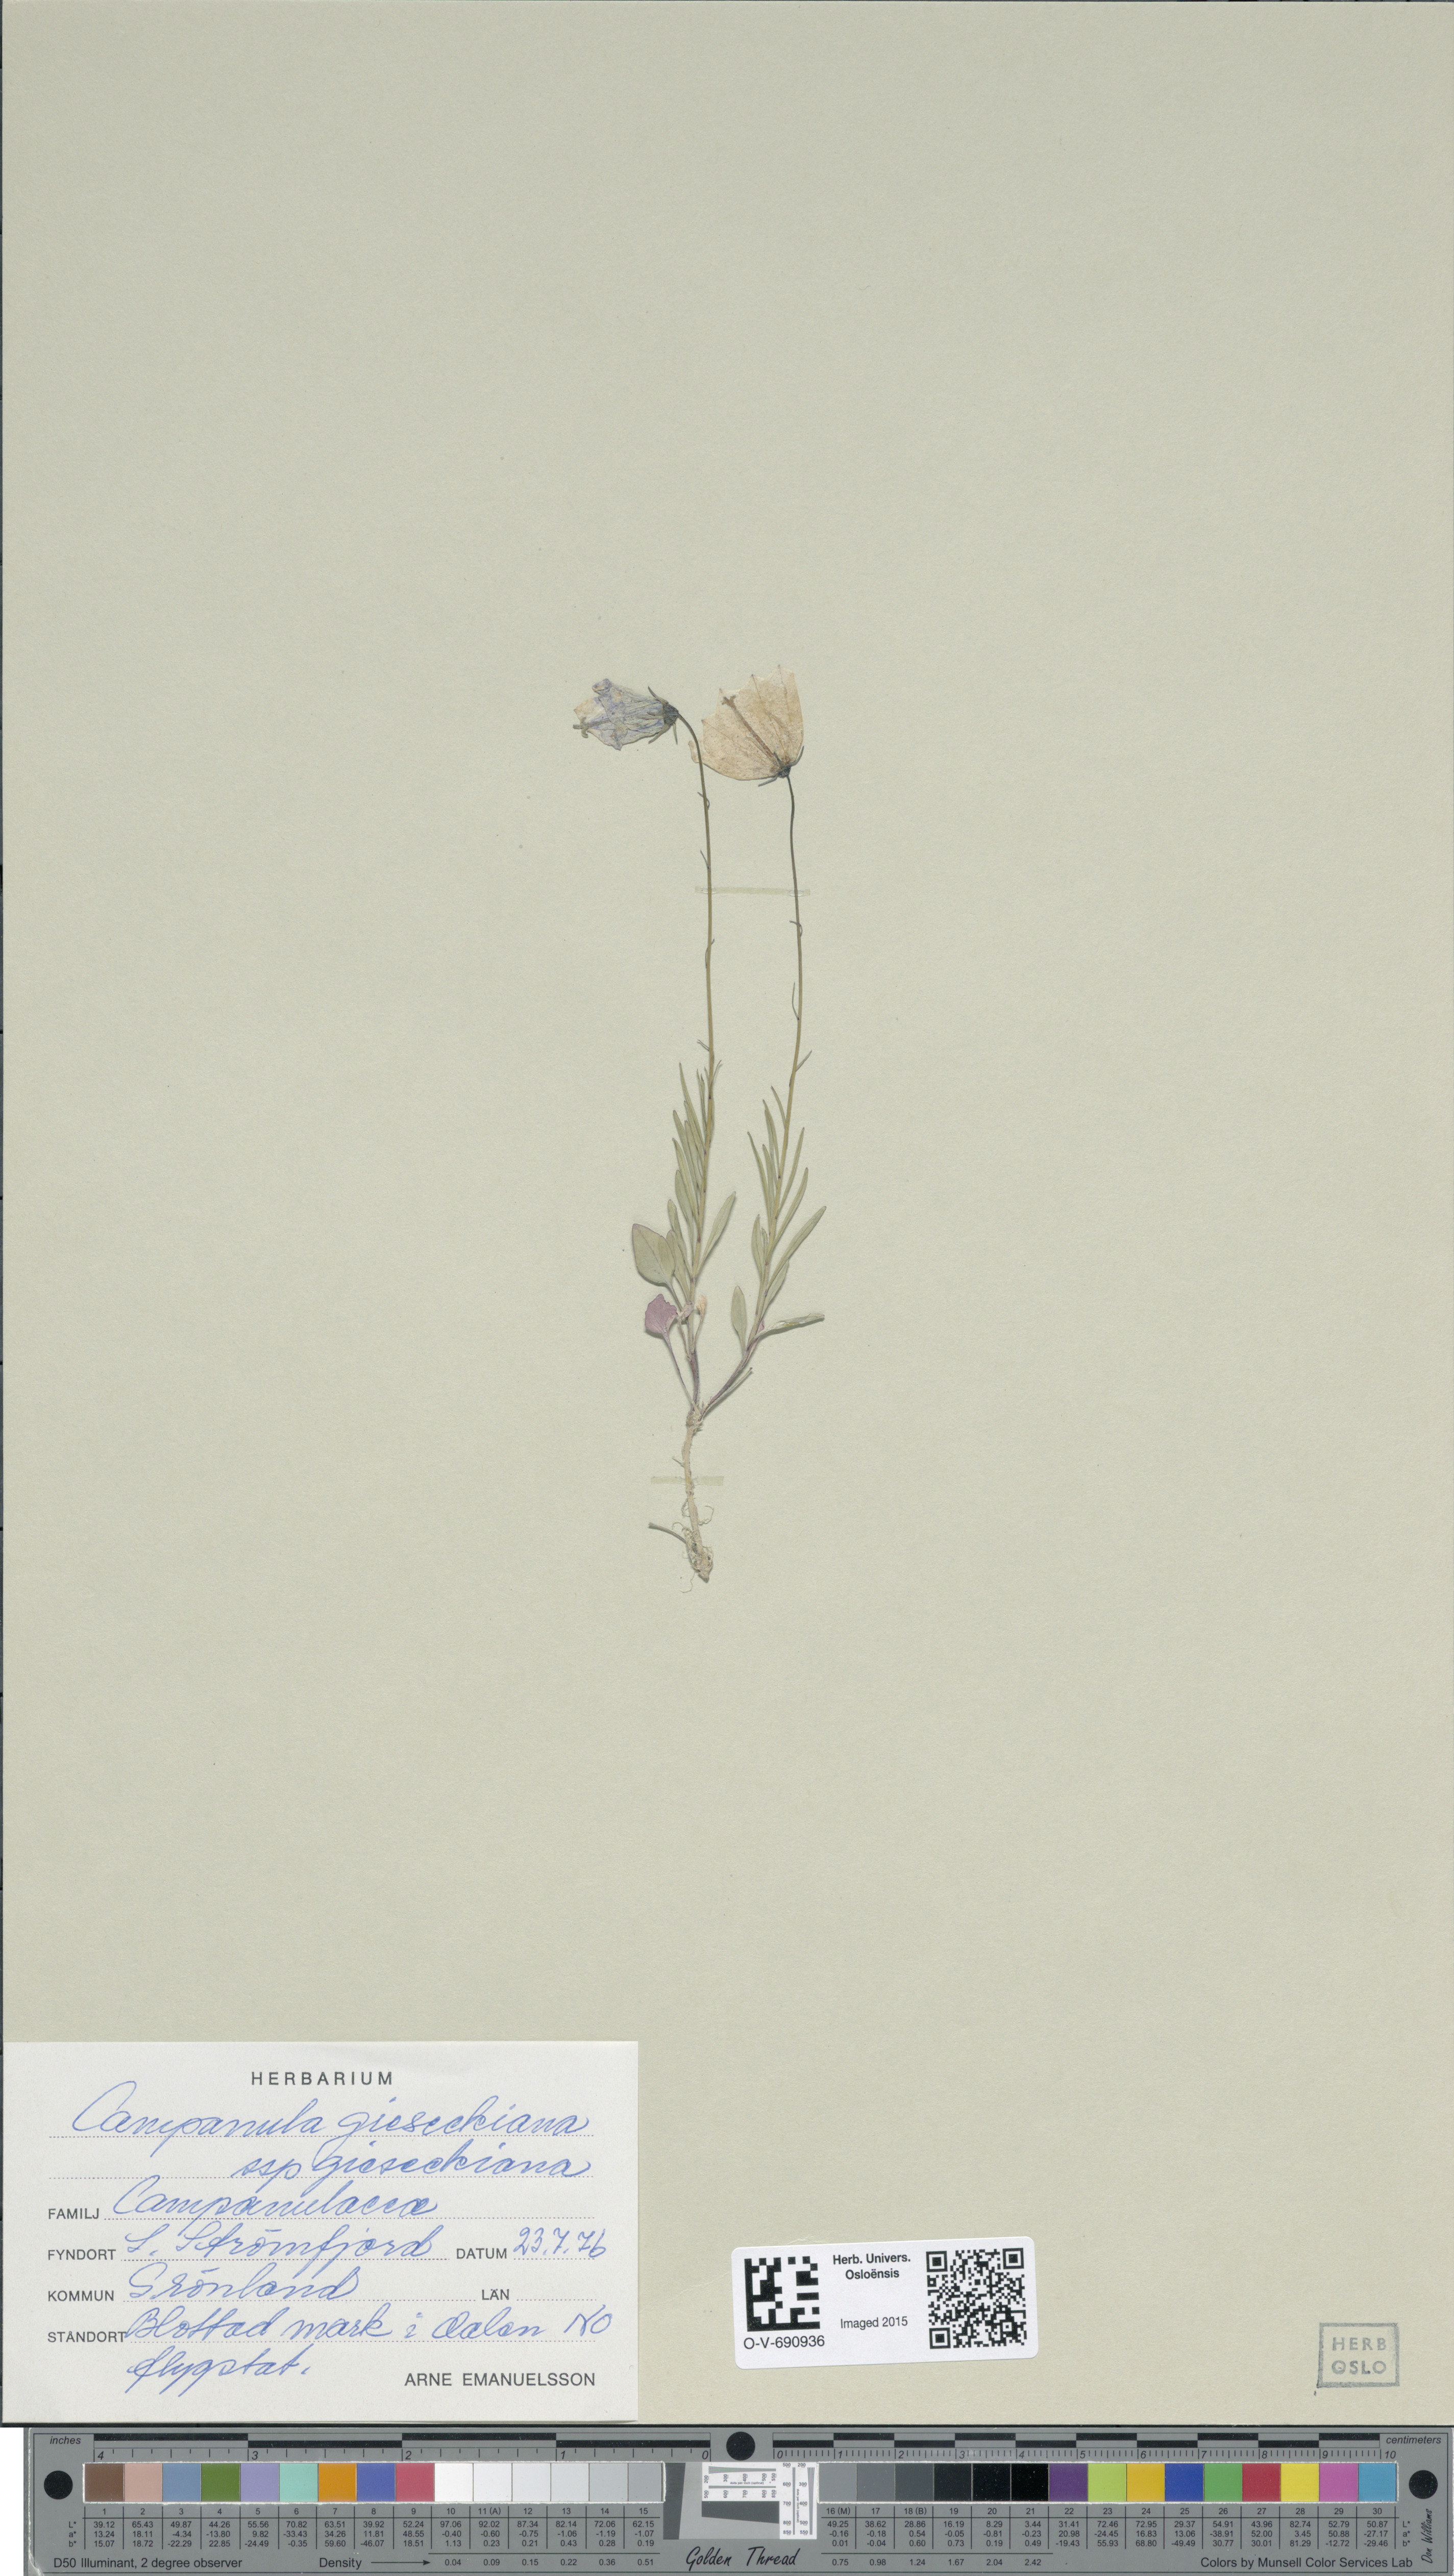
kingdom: Plantae
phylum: Tracheophyta
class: Magnoliopsida
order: Asterales
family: Campanulaceae
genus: Campanula
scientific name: Campanula rotundifolia
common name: Harebell
